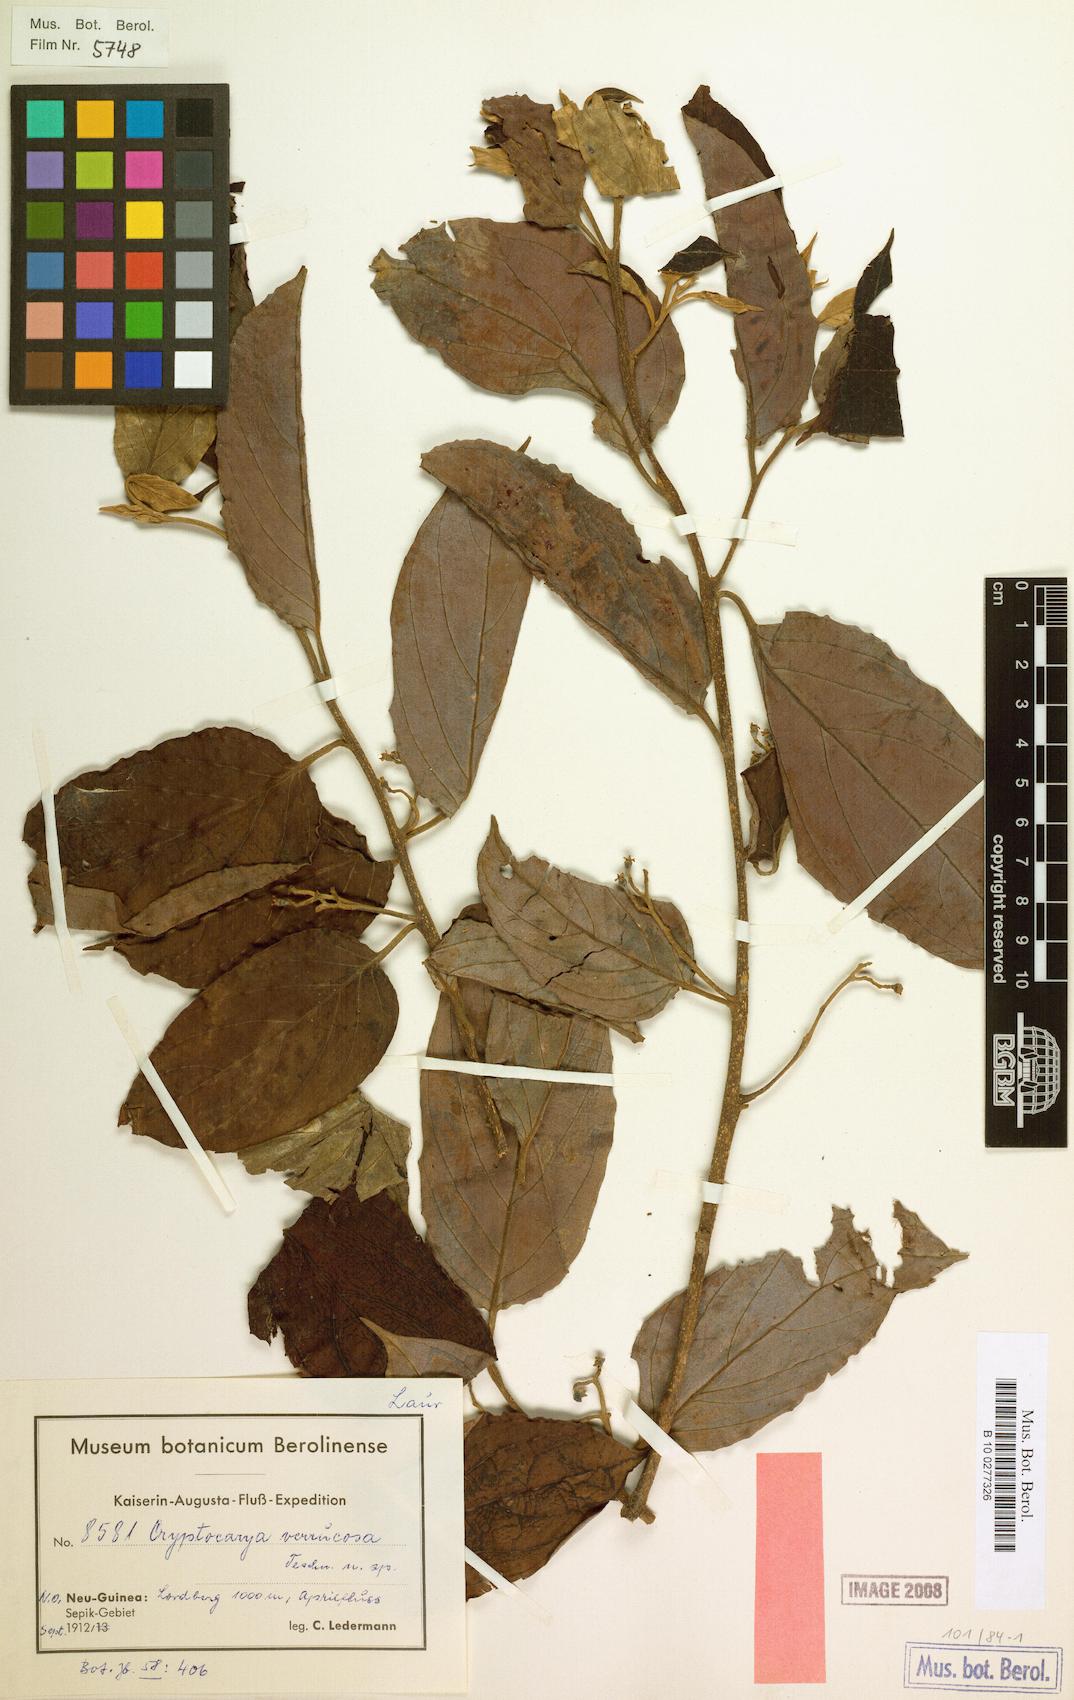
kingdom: Plantae
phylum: Tracheophyta
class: Magnoliopsida
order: Laurales
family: Lauraceae
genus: Cryptocarya
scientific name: Cryptocarya verrucosa
